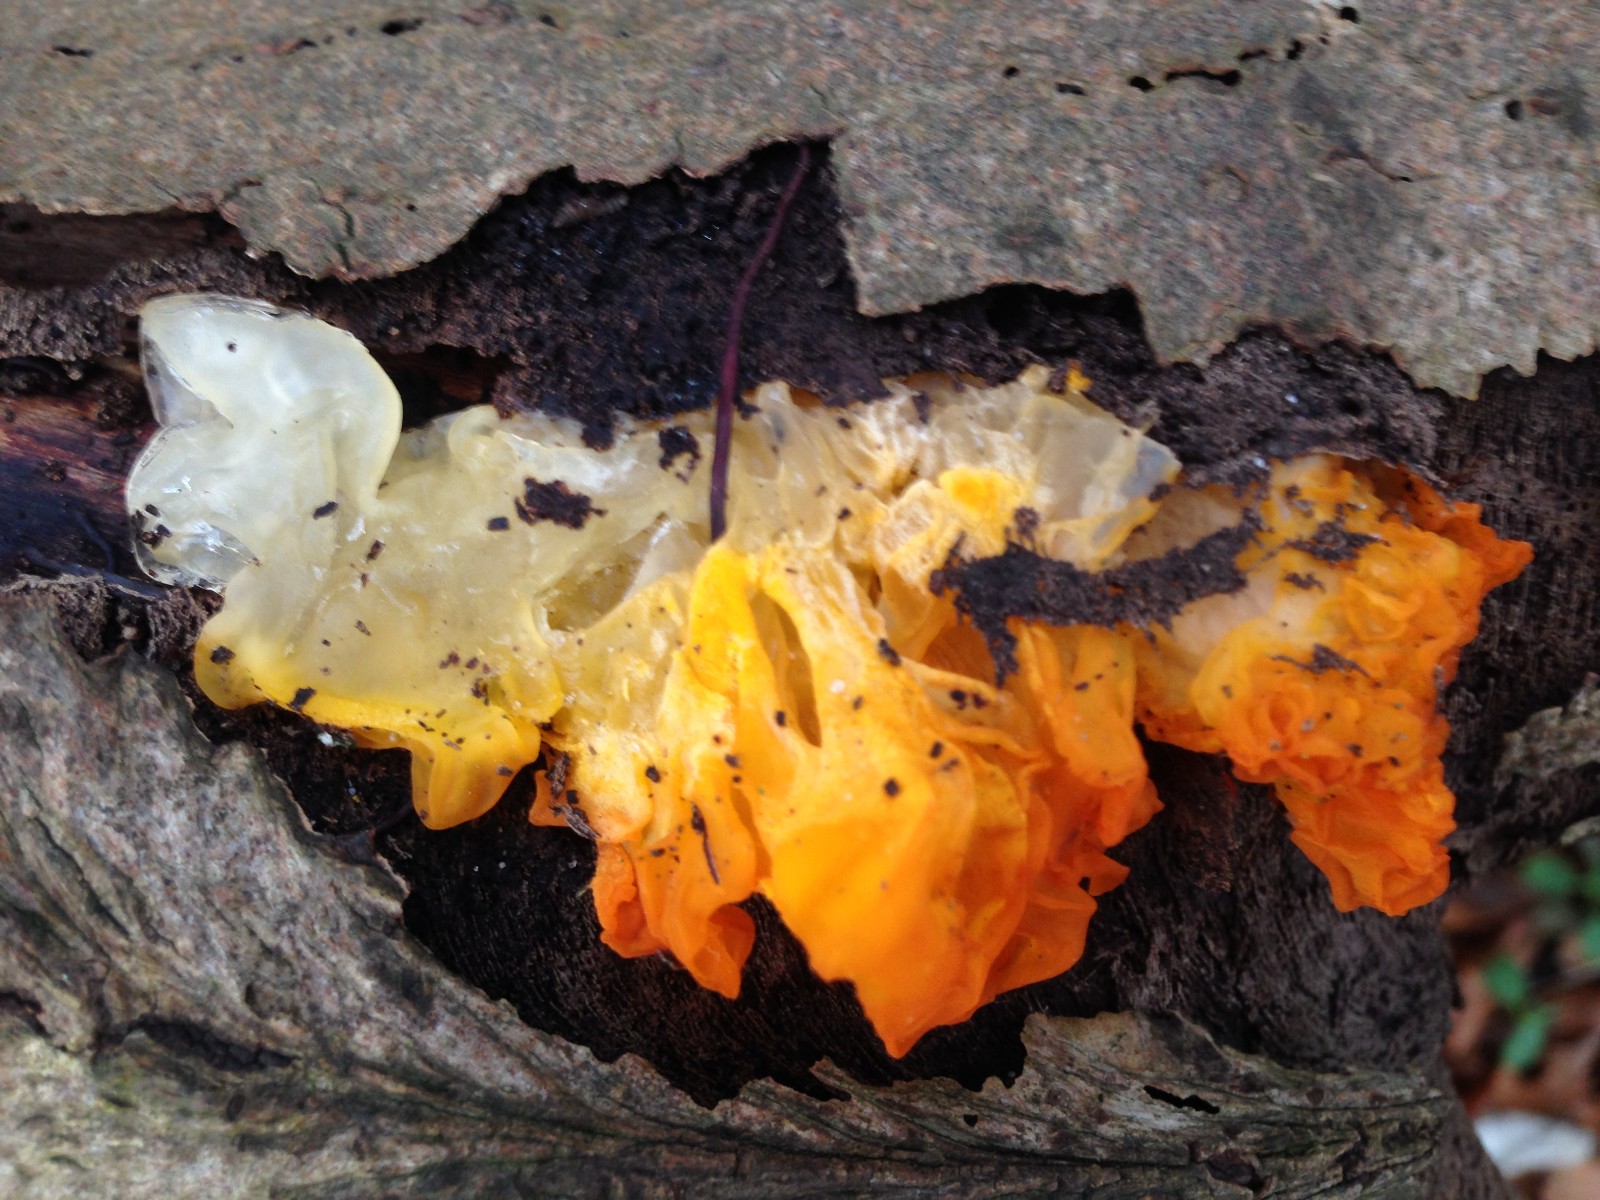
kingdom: Fungi
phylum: Basidiomycota
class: Tremellomycetes
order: Tremellales
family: Tremellaceae
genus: Tremella
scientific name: Tremella mesenterica
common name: gul bævresvamp
